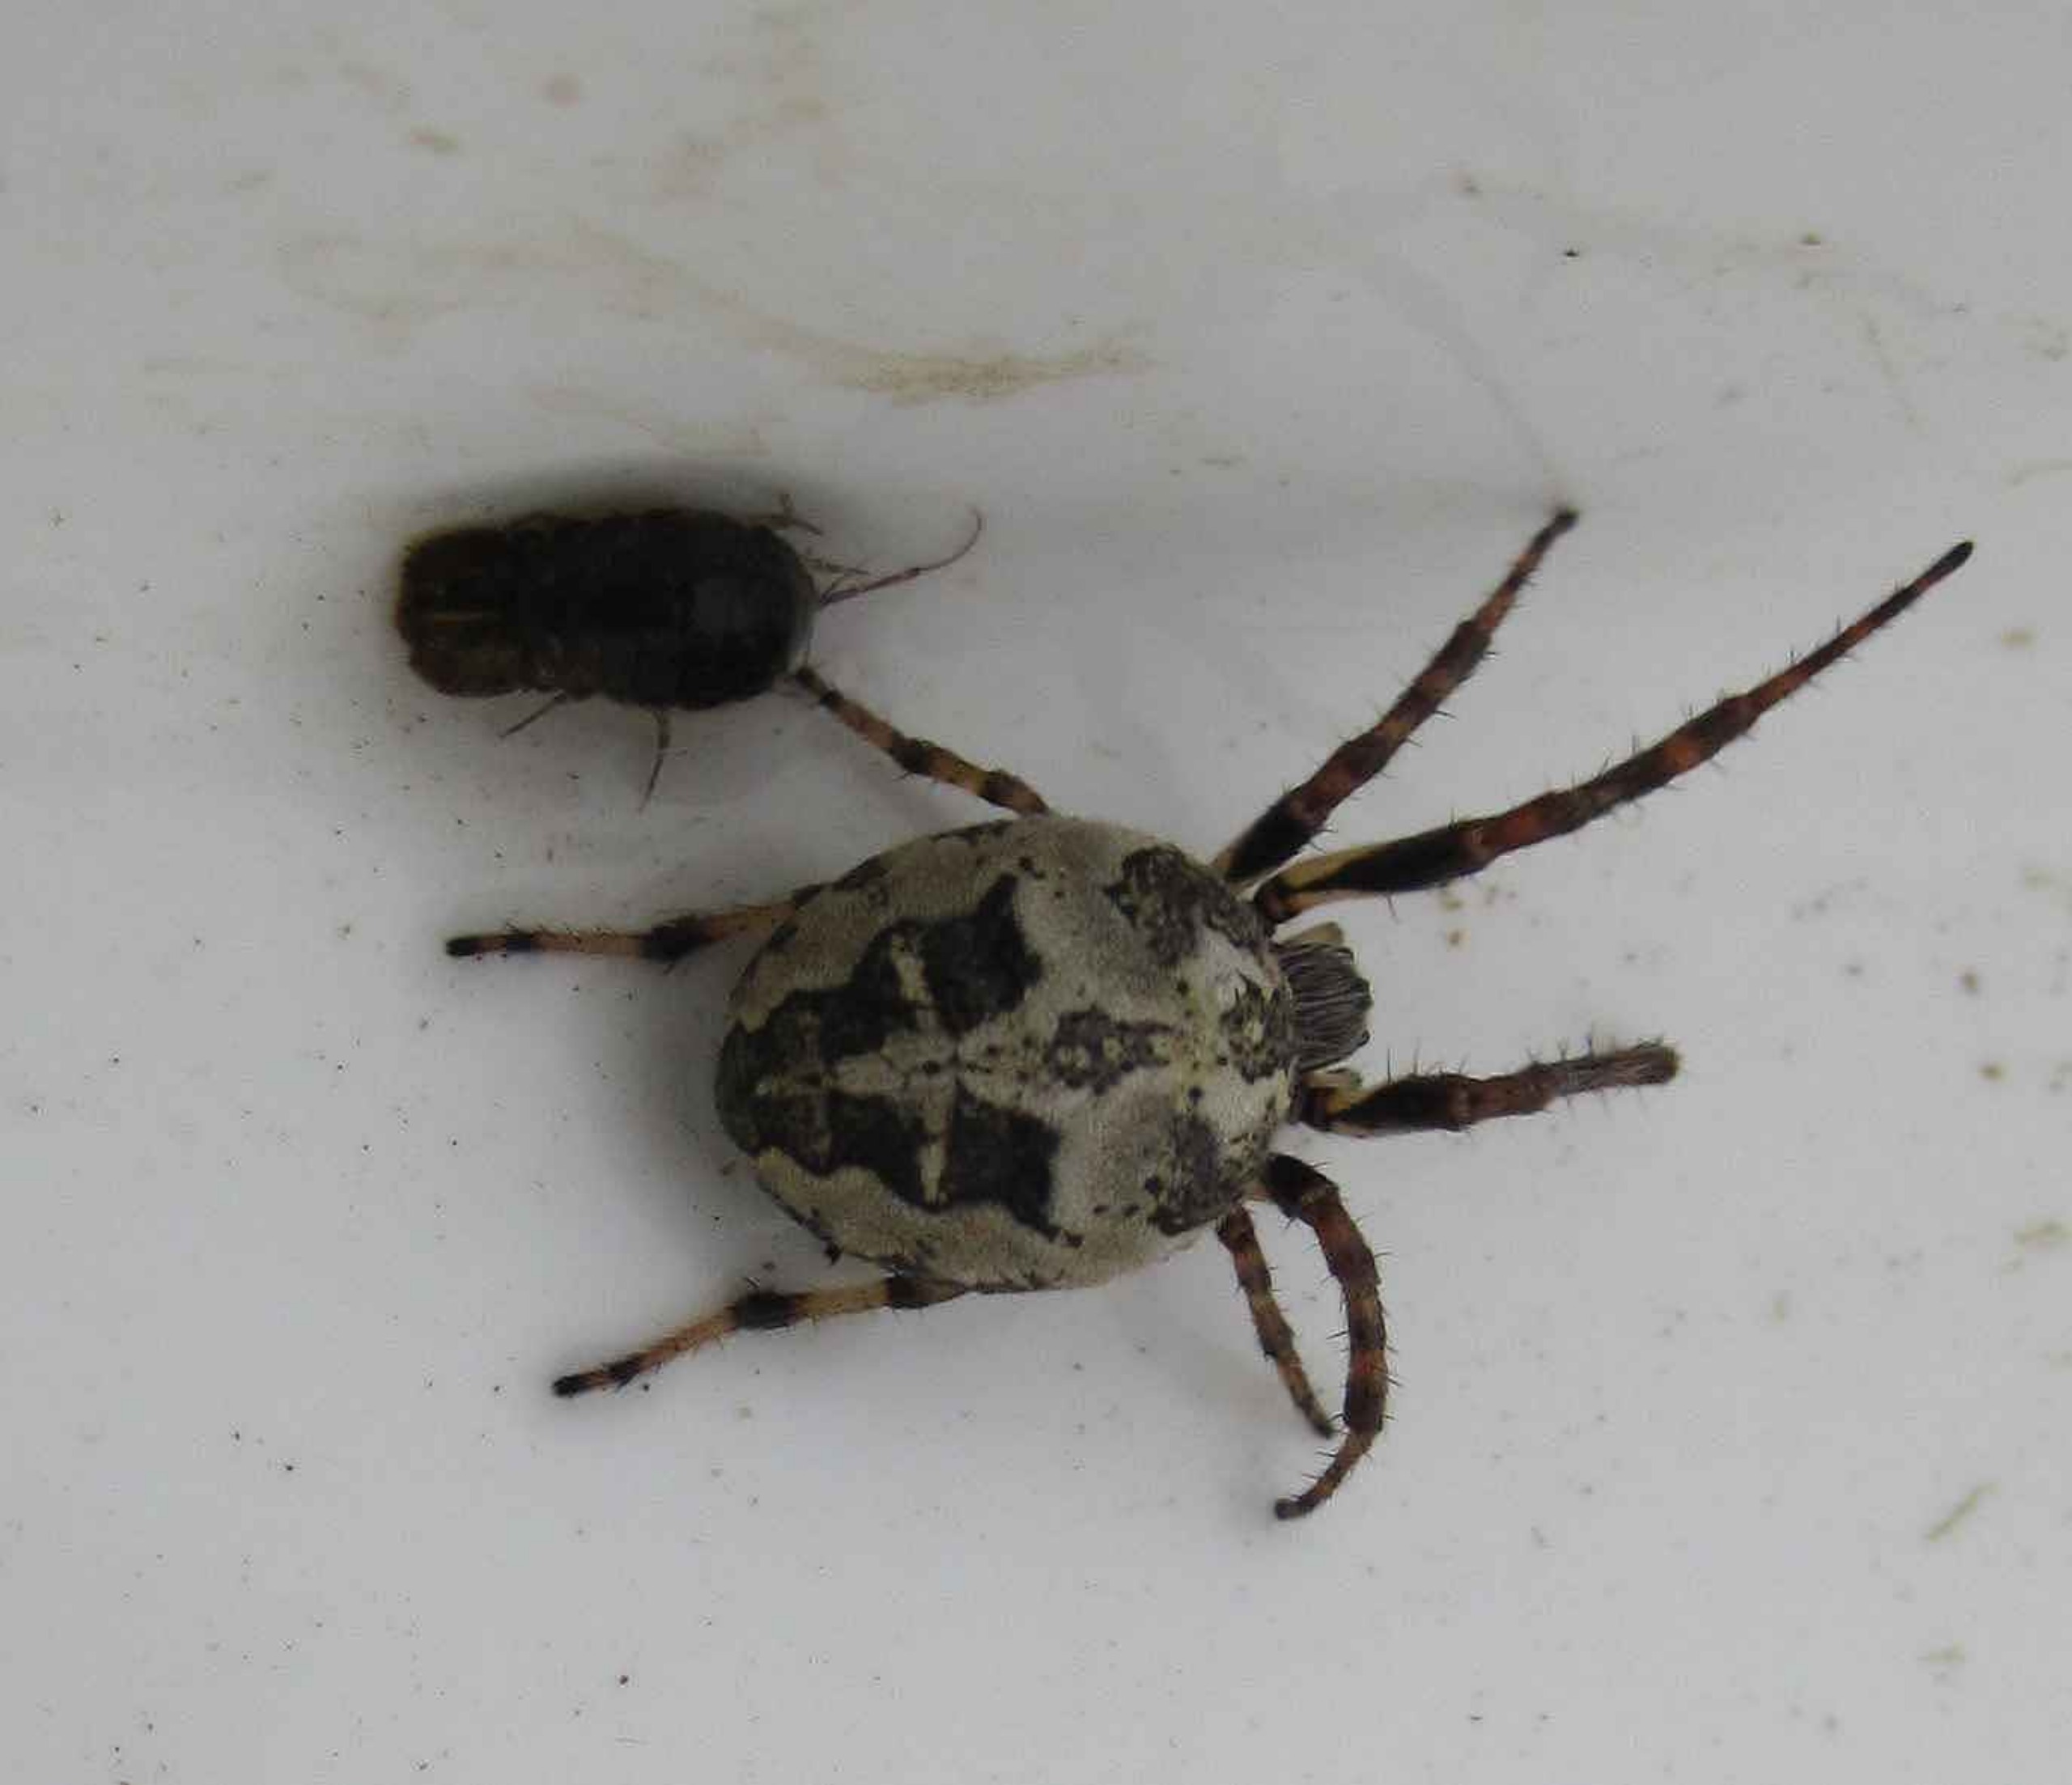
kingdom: Animalia
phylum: Arthropoda
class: Arachnida
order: Araneae
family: Araneidae
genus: Larinioides
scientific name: Larinioides cornutus
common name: Sivhjulspinder
